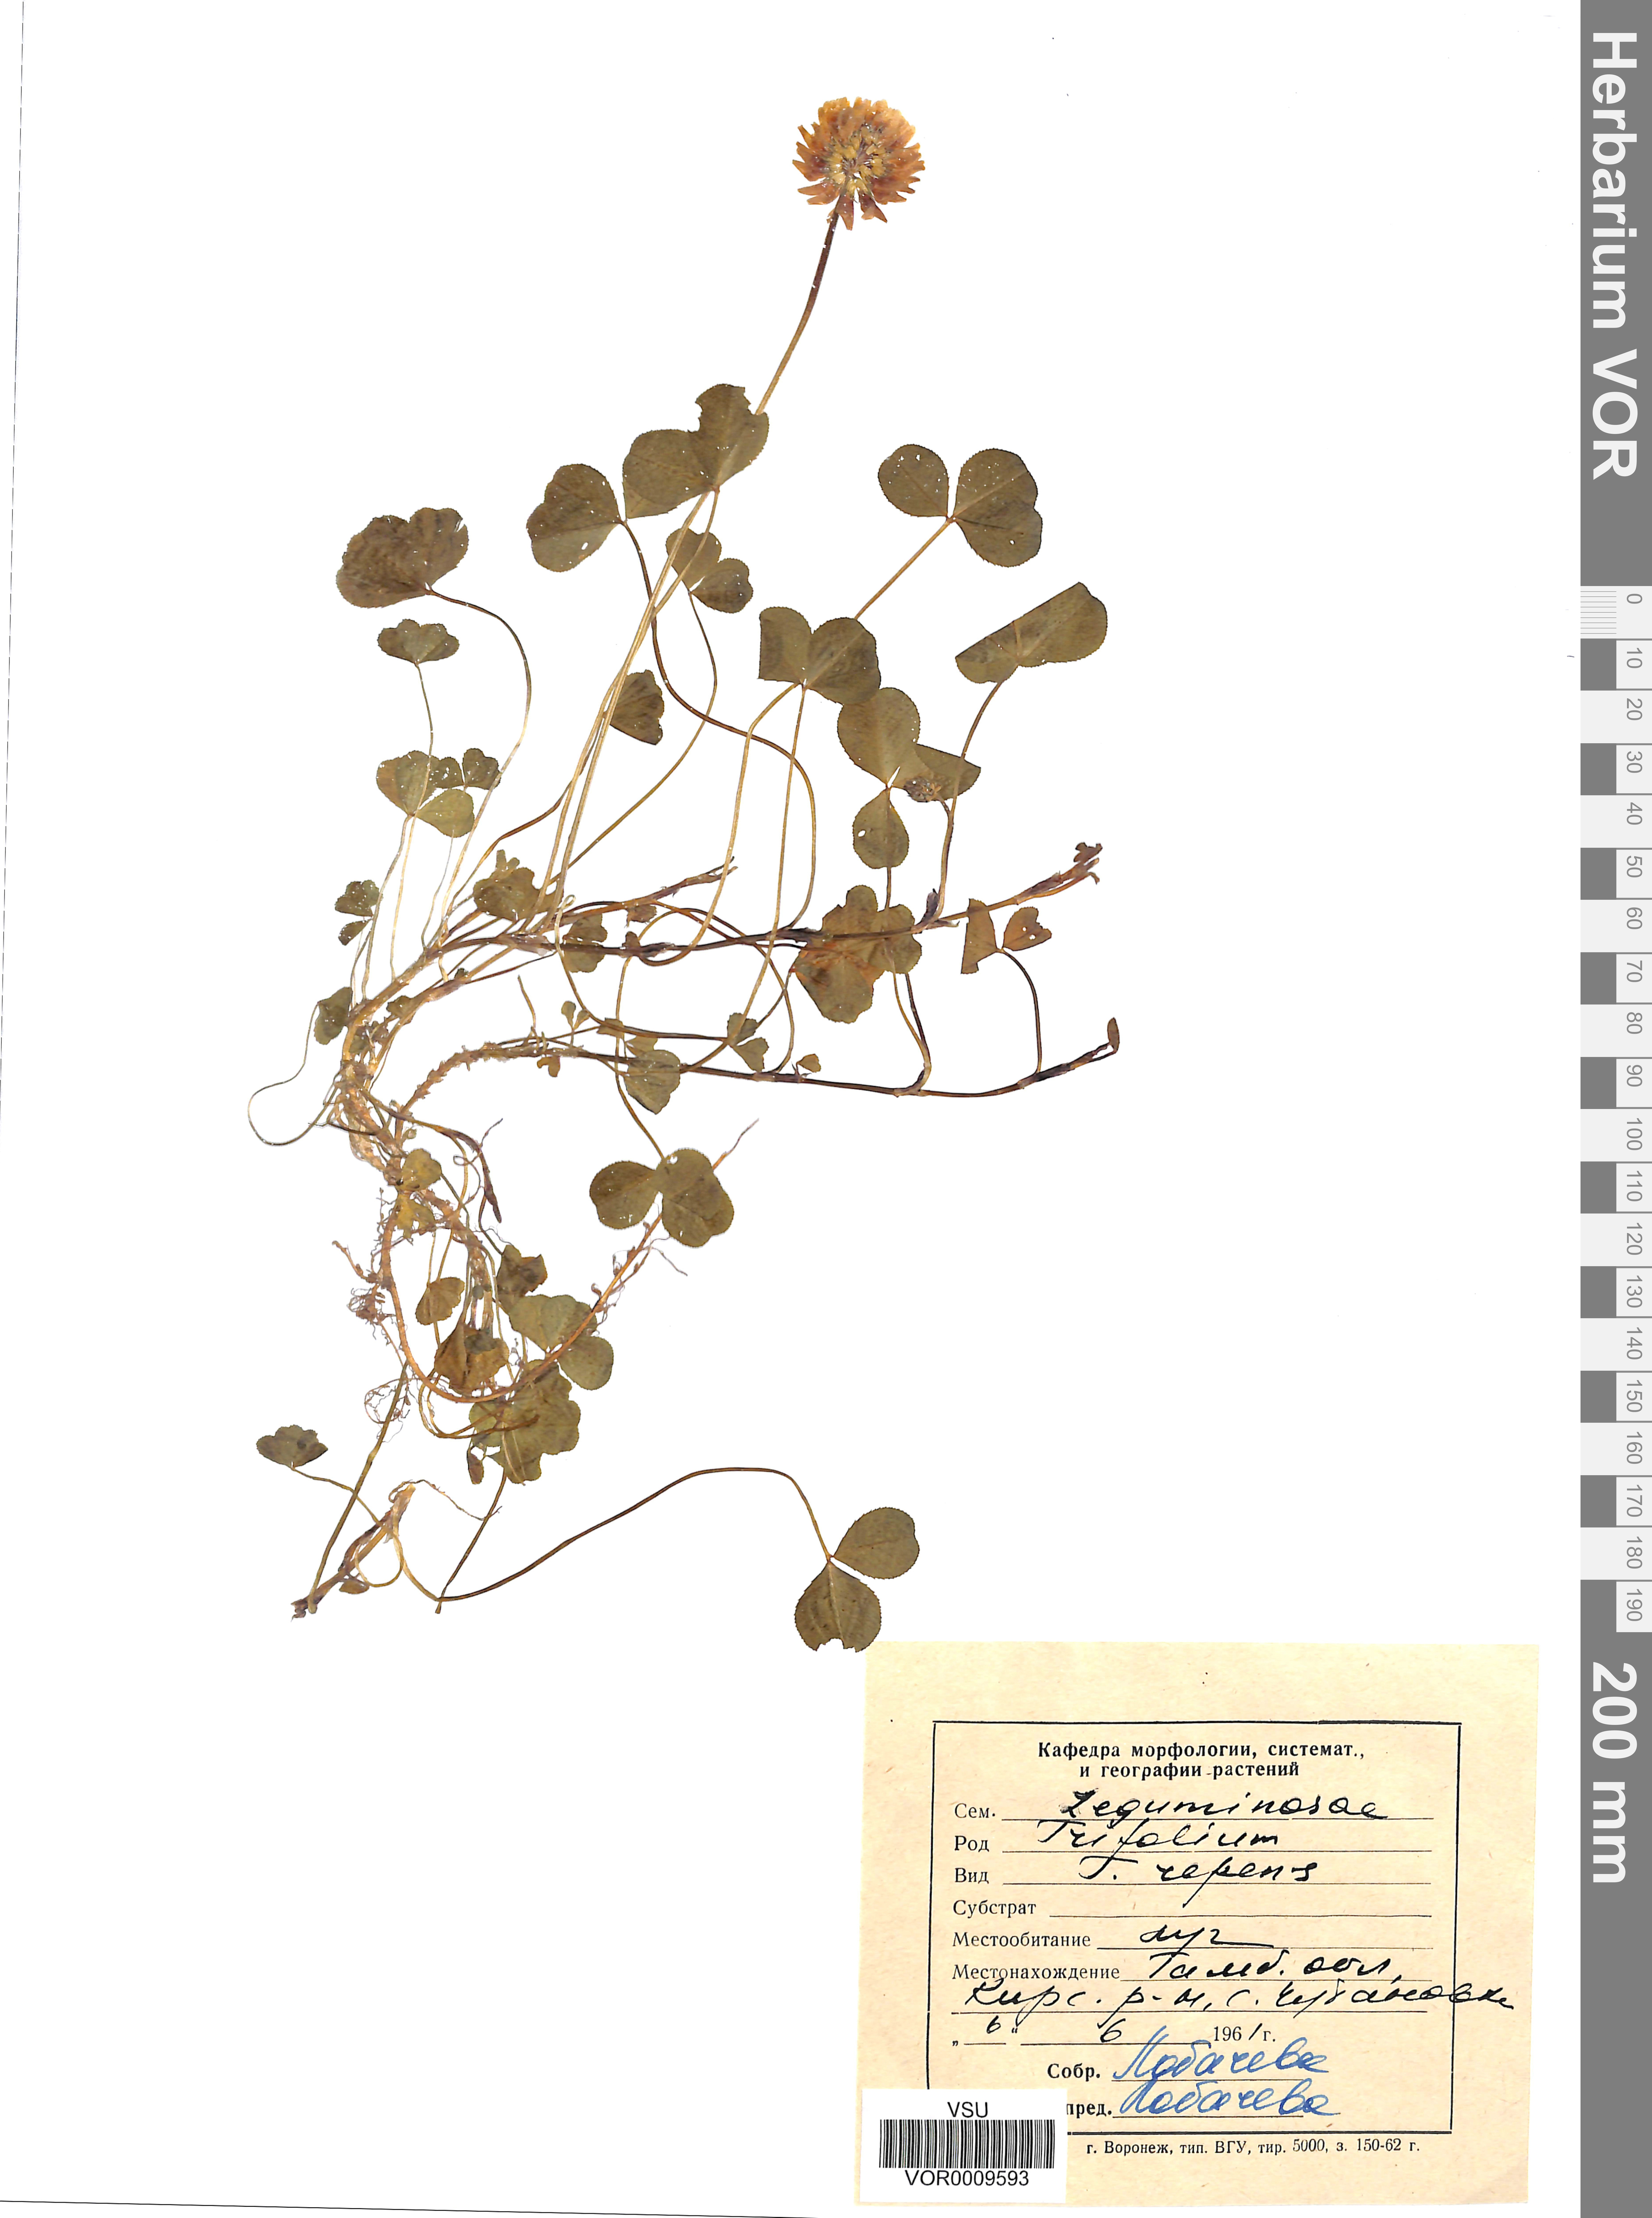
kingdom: Plantae
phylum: Tracheophyta
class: Magnoliopsida
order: Fabales
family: Fabaceae
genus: Trifolium
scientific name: Trifolium repens
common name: White clover
